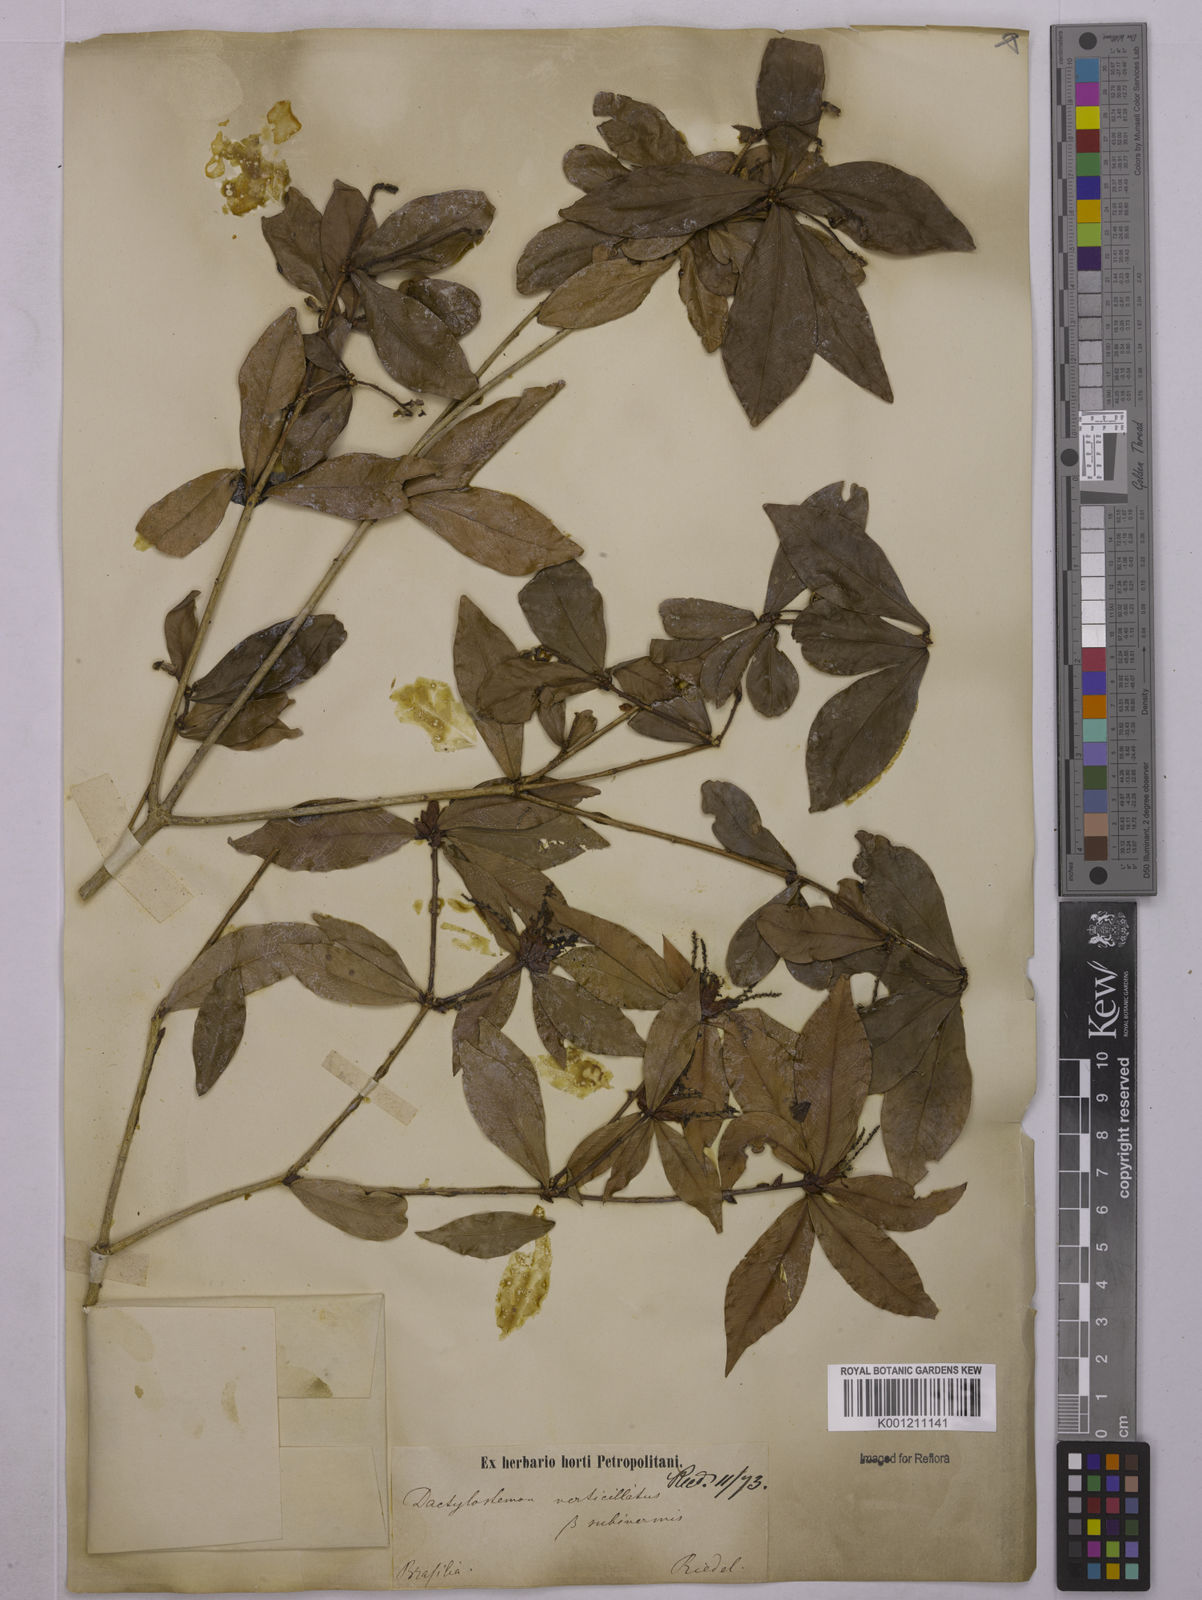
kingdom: Plantae
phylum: Tracheophyta
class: Magnoliopsida
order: Malpighiales
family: Euphorbiaceae
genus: Actinostemon
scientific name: Actinostemon verticillatus
